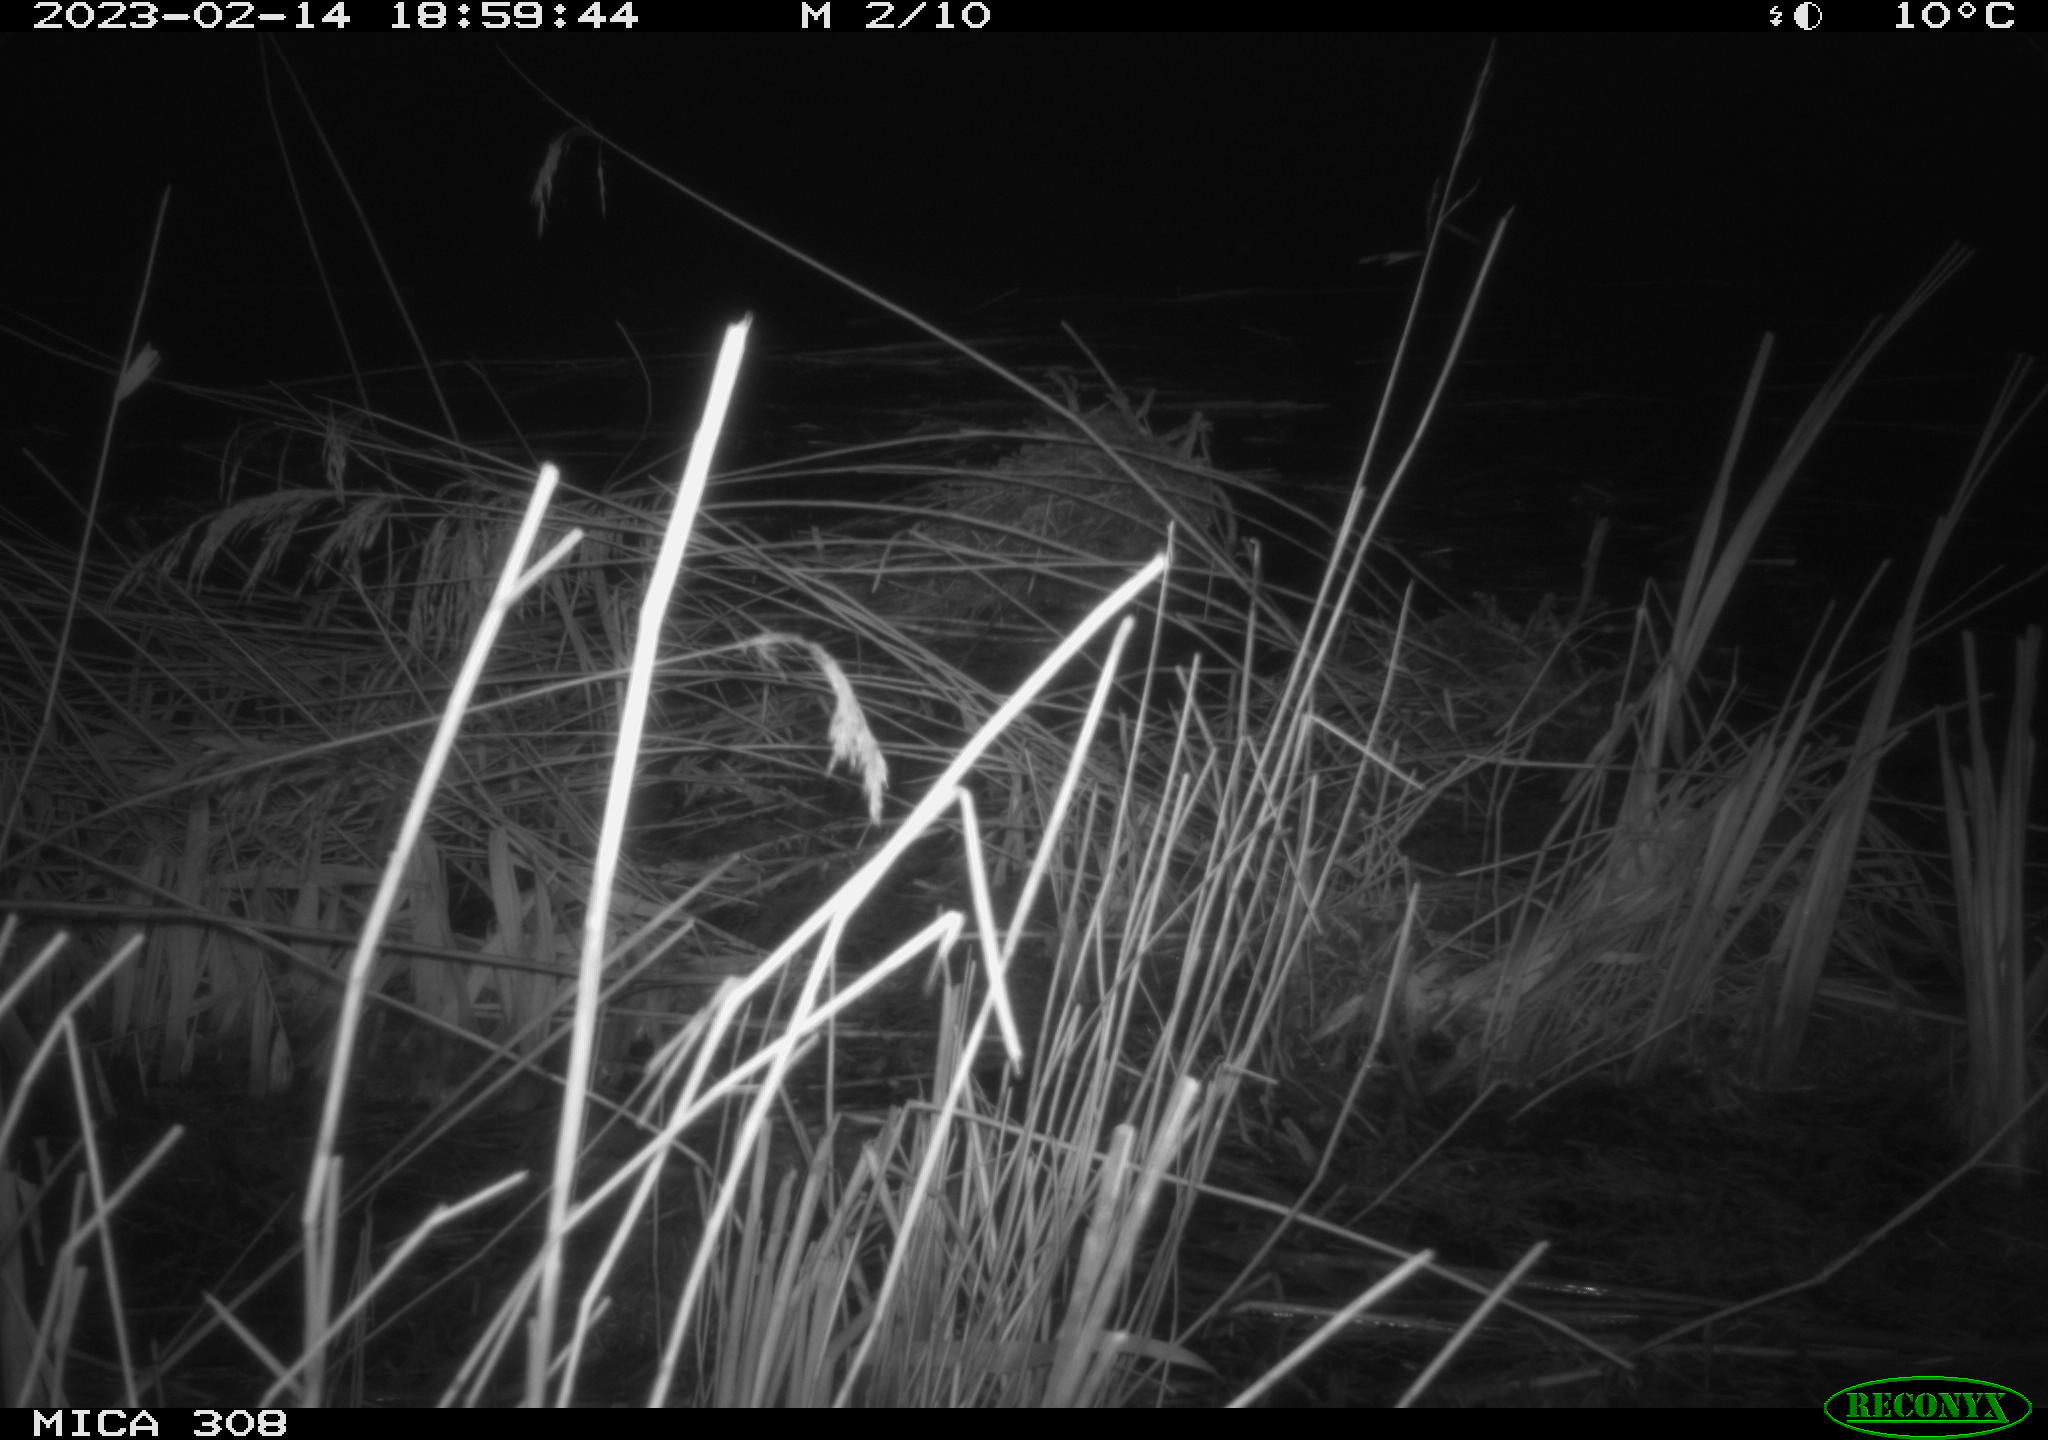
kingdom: Animalia
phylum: Chordata
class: Mammalia
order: Rodentia
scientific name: Rodentia
